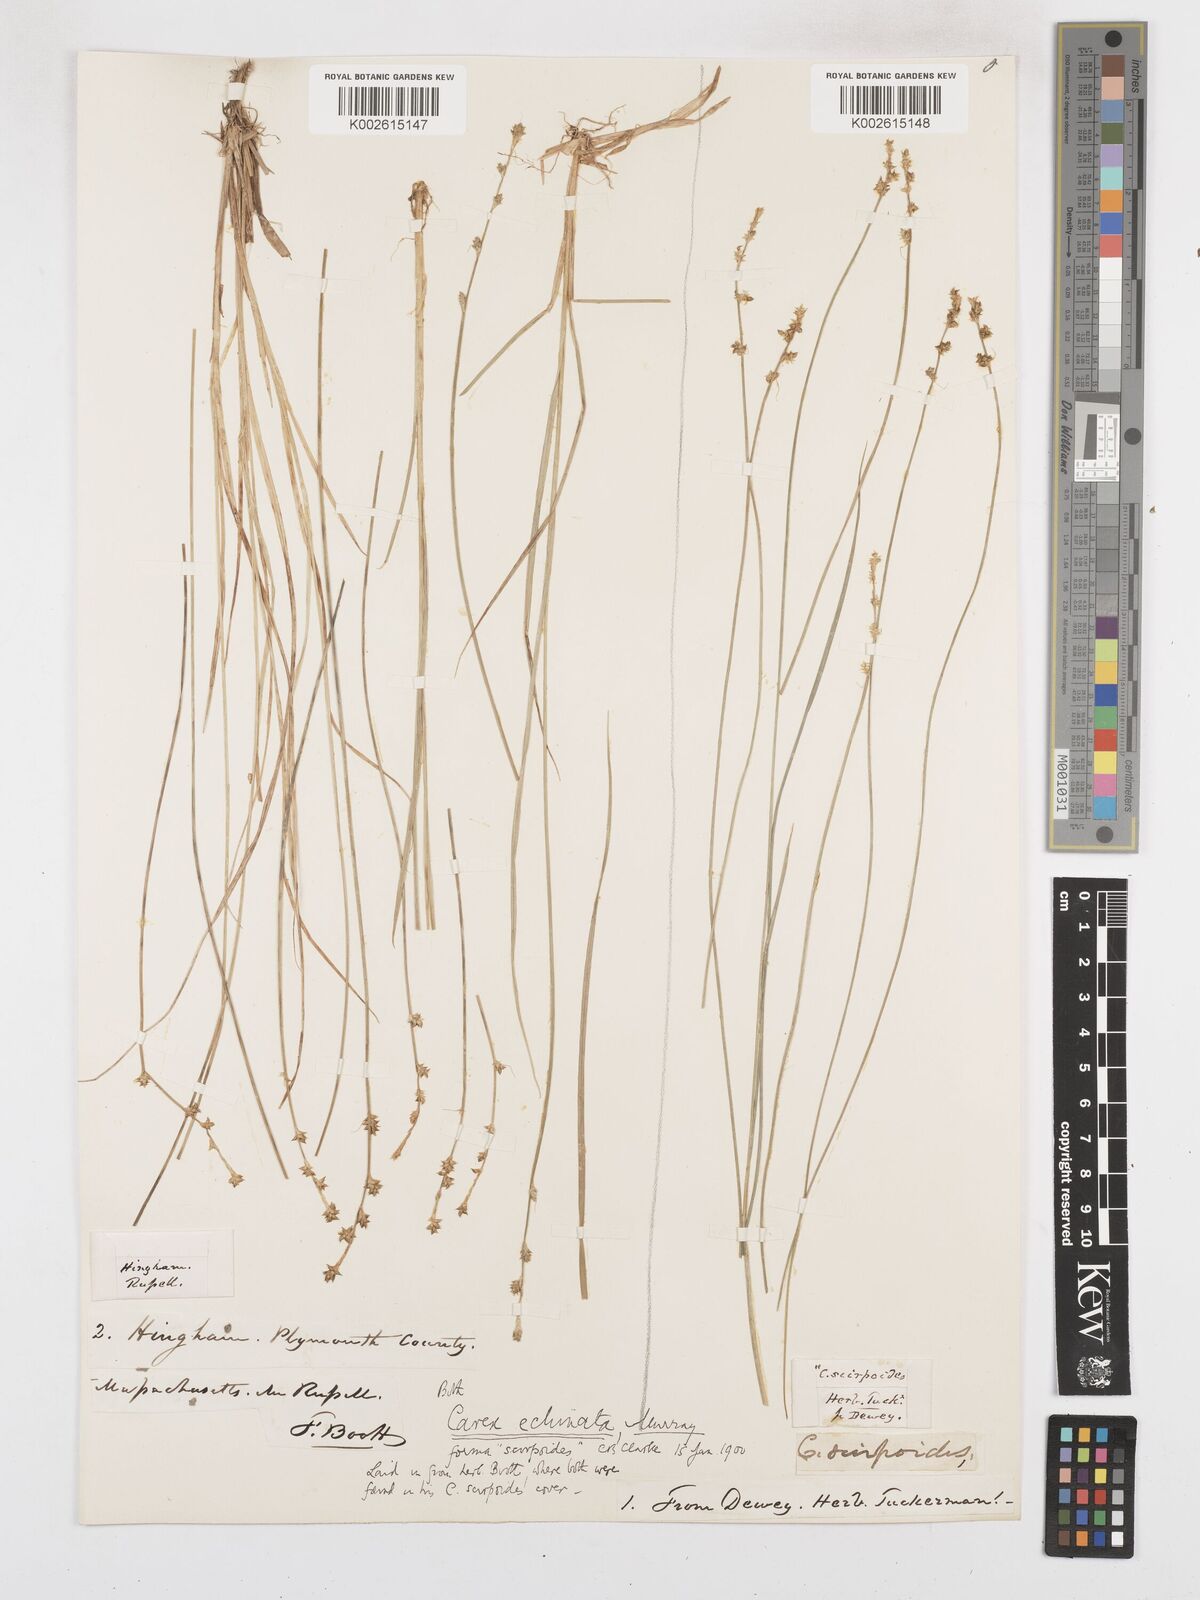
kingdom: Plantae
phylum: Tracheophyta
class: Liliopsida
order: Poales
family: Cyperaceae
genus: Carex
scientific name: Carex echinata
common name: Star sedge
